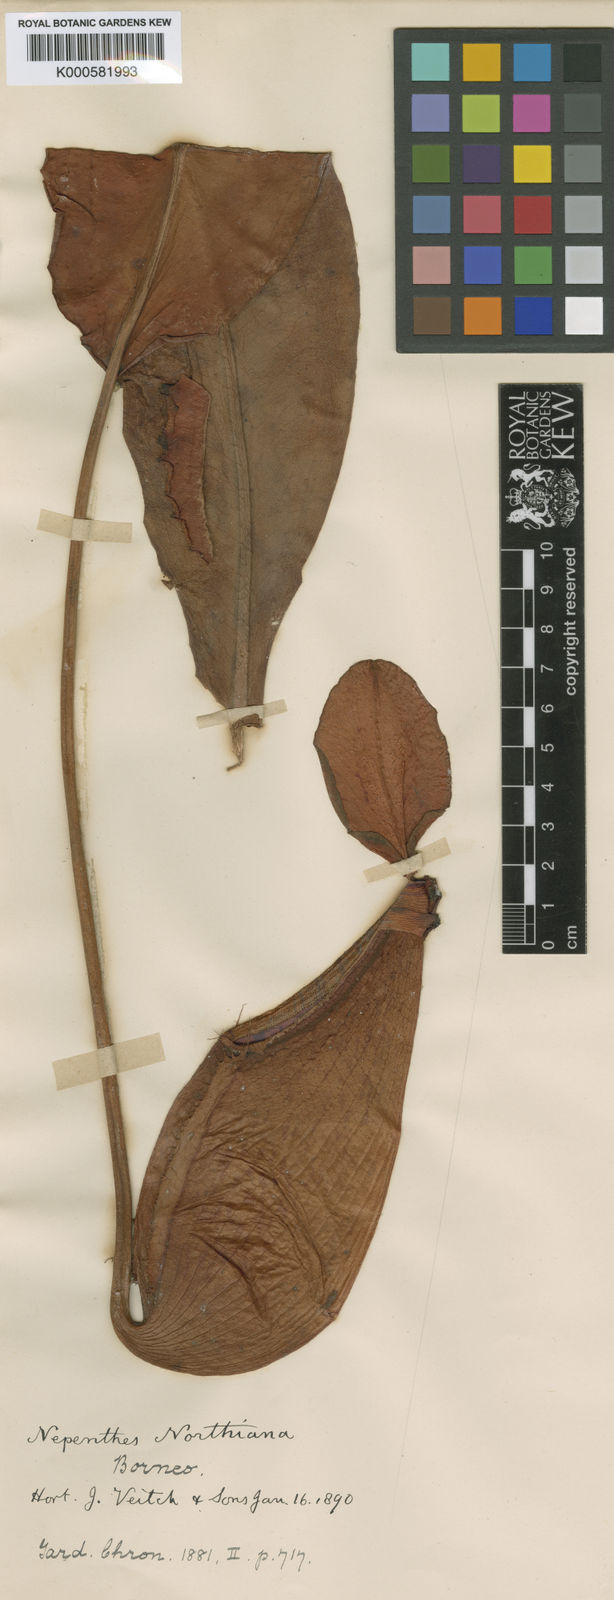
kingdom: Plantae
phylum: Tracheophyta
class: Magnoliopsida
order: Caryophyllales
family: Nepenthaceae
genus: Nepenthes
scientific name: Nepenthes northiana
